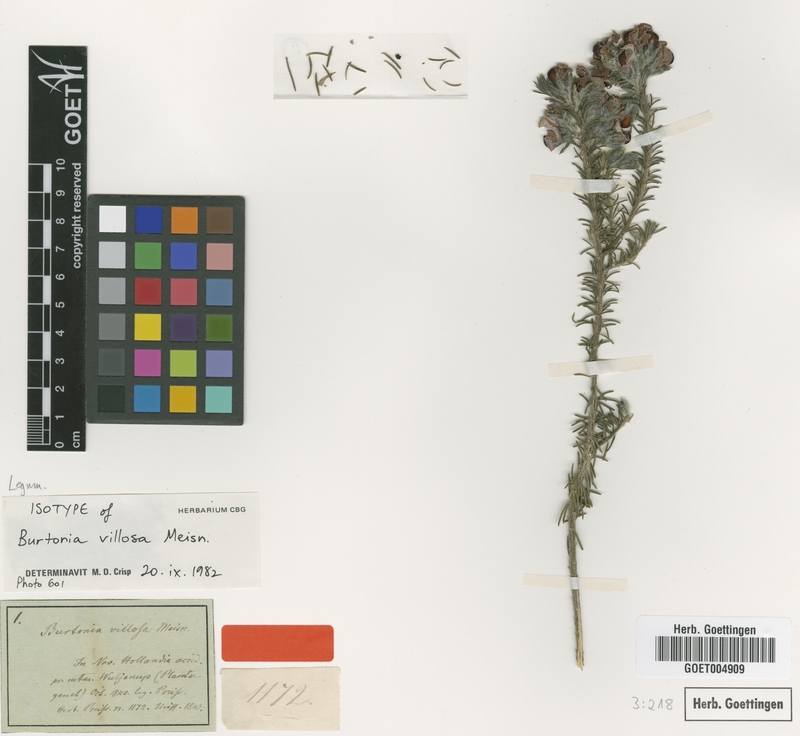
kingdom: Plantae
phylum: Tracheophyta
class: Magnoliopsida
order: Fabales
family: Fabaceae
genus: Gompholobium
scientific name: Gompholobium villosum
